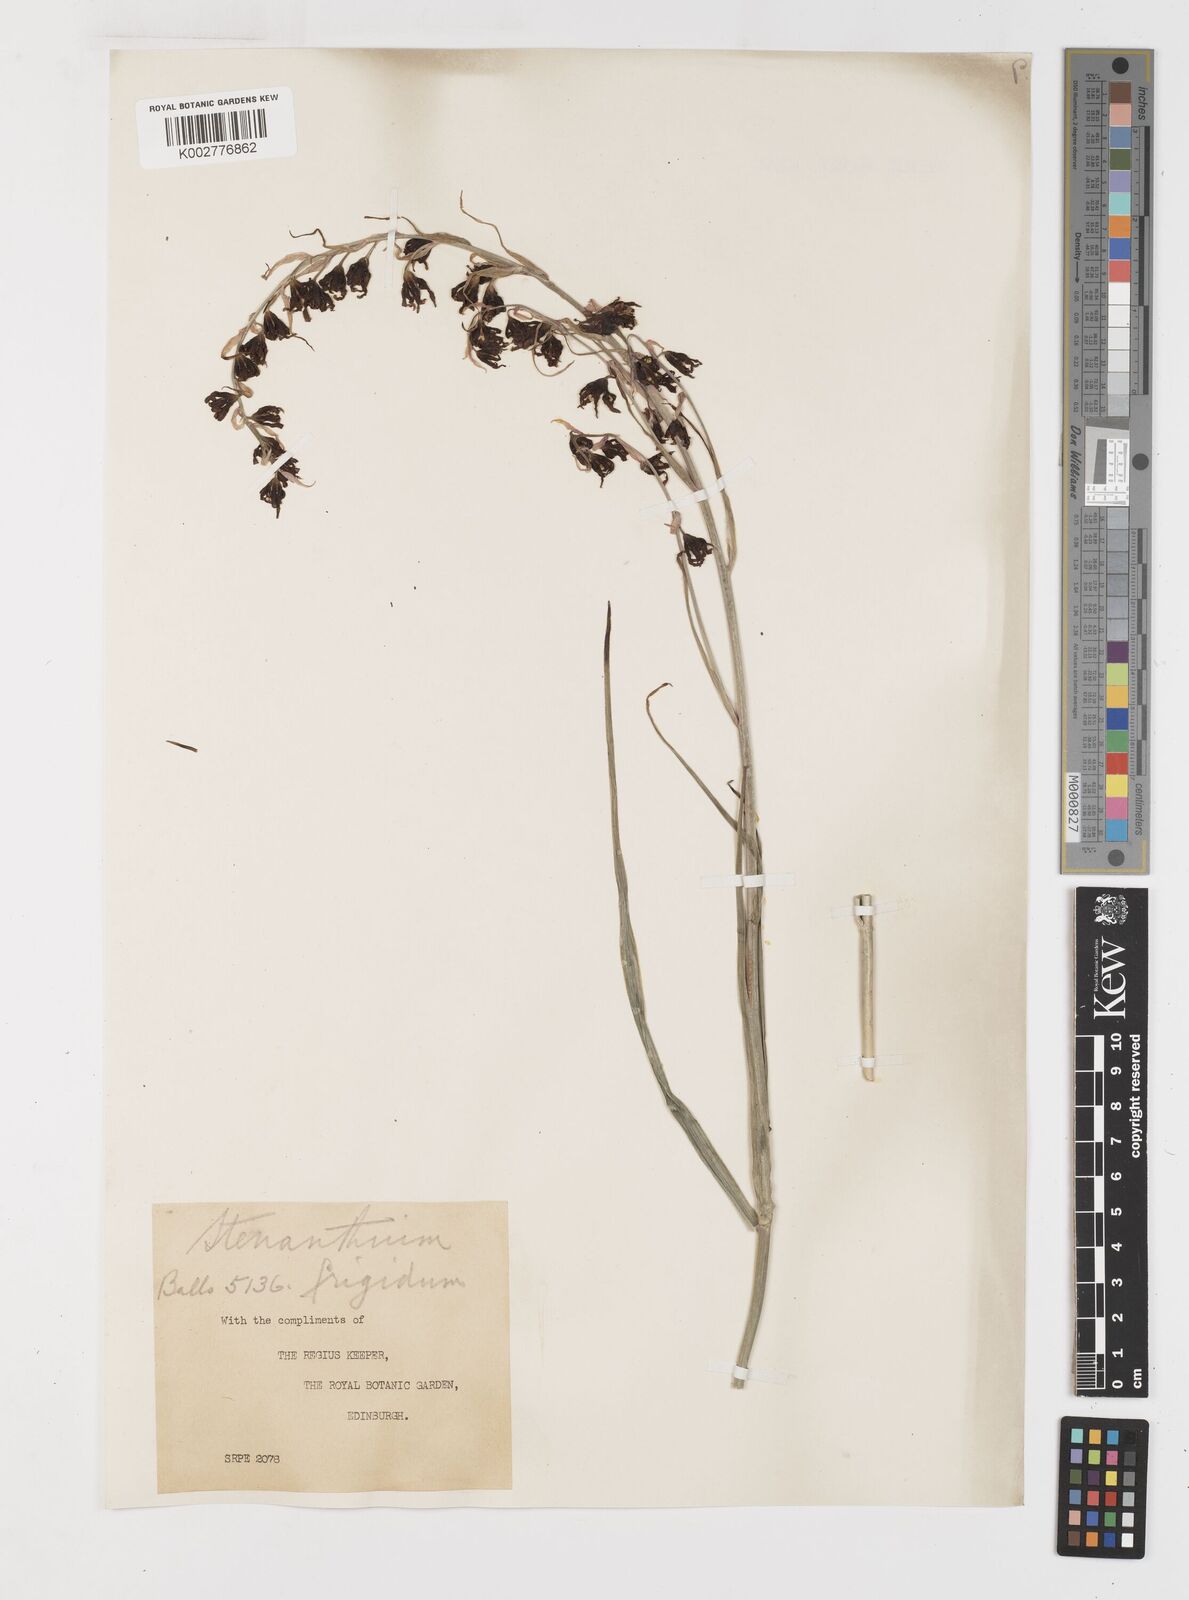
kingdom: Plantae
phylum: Tracheophyta
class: Liliopsida
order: Liliales
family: Melanthiaceae
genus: Anticlea
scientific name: Anticlea frigida
